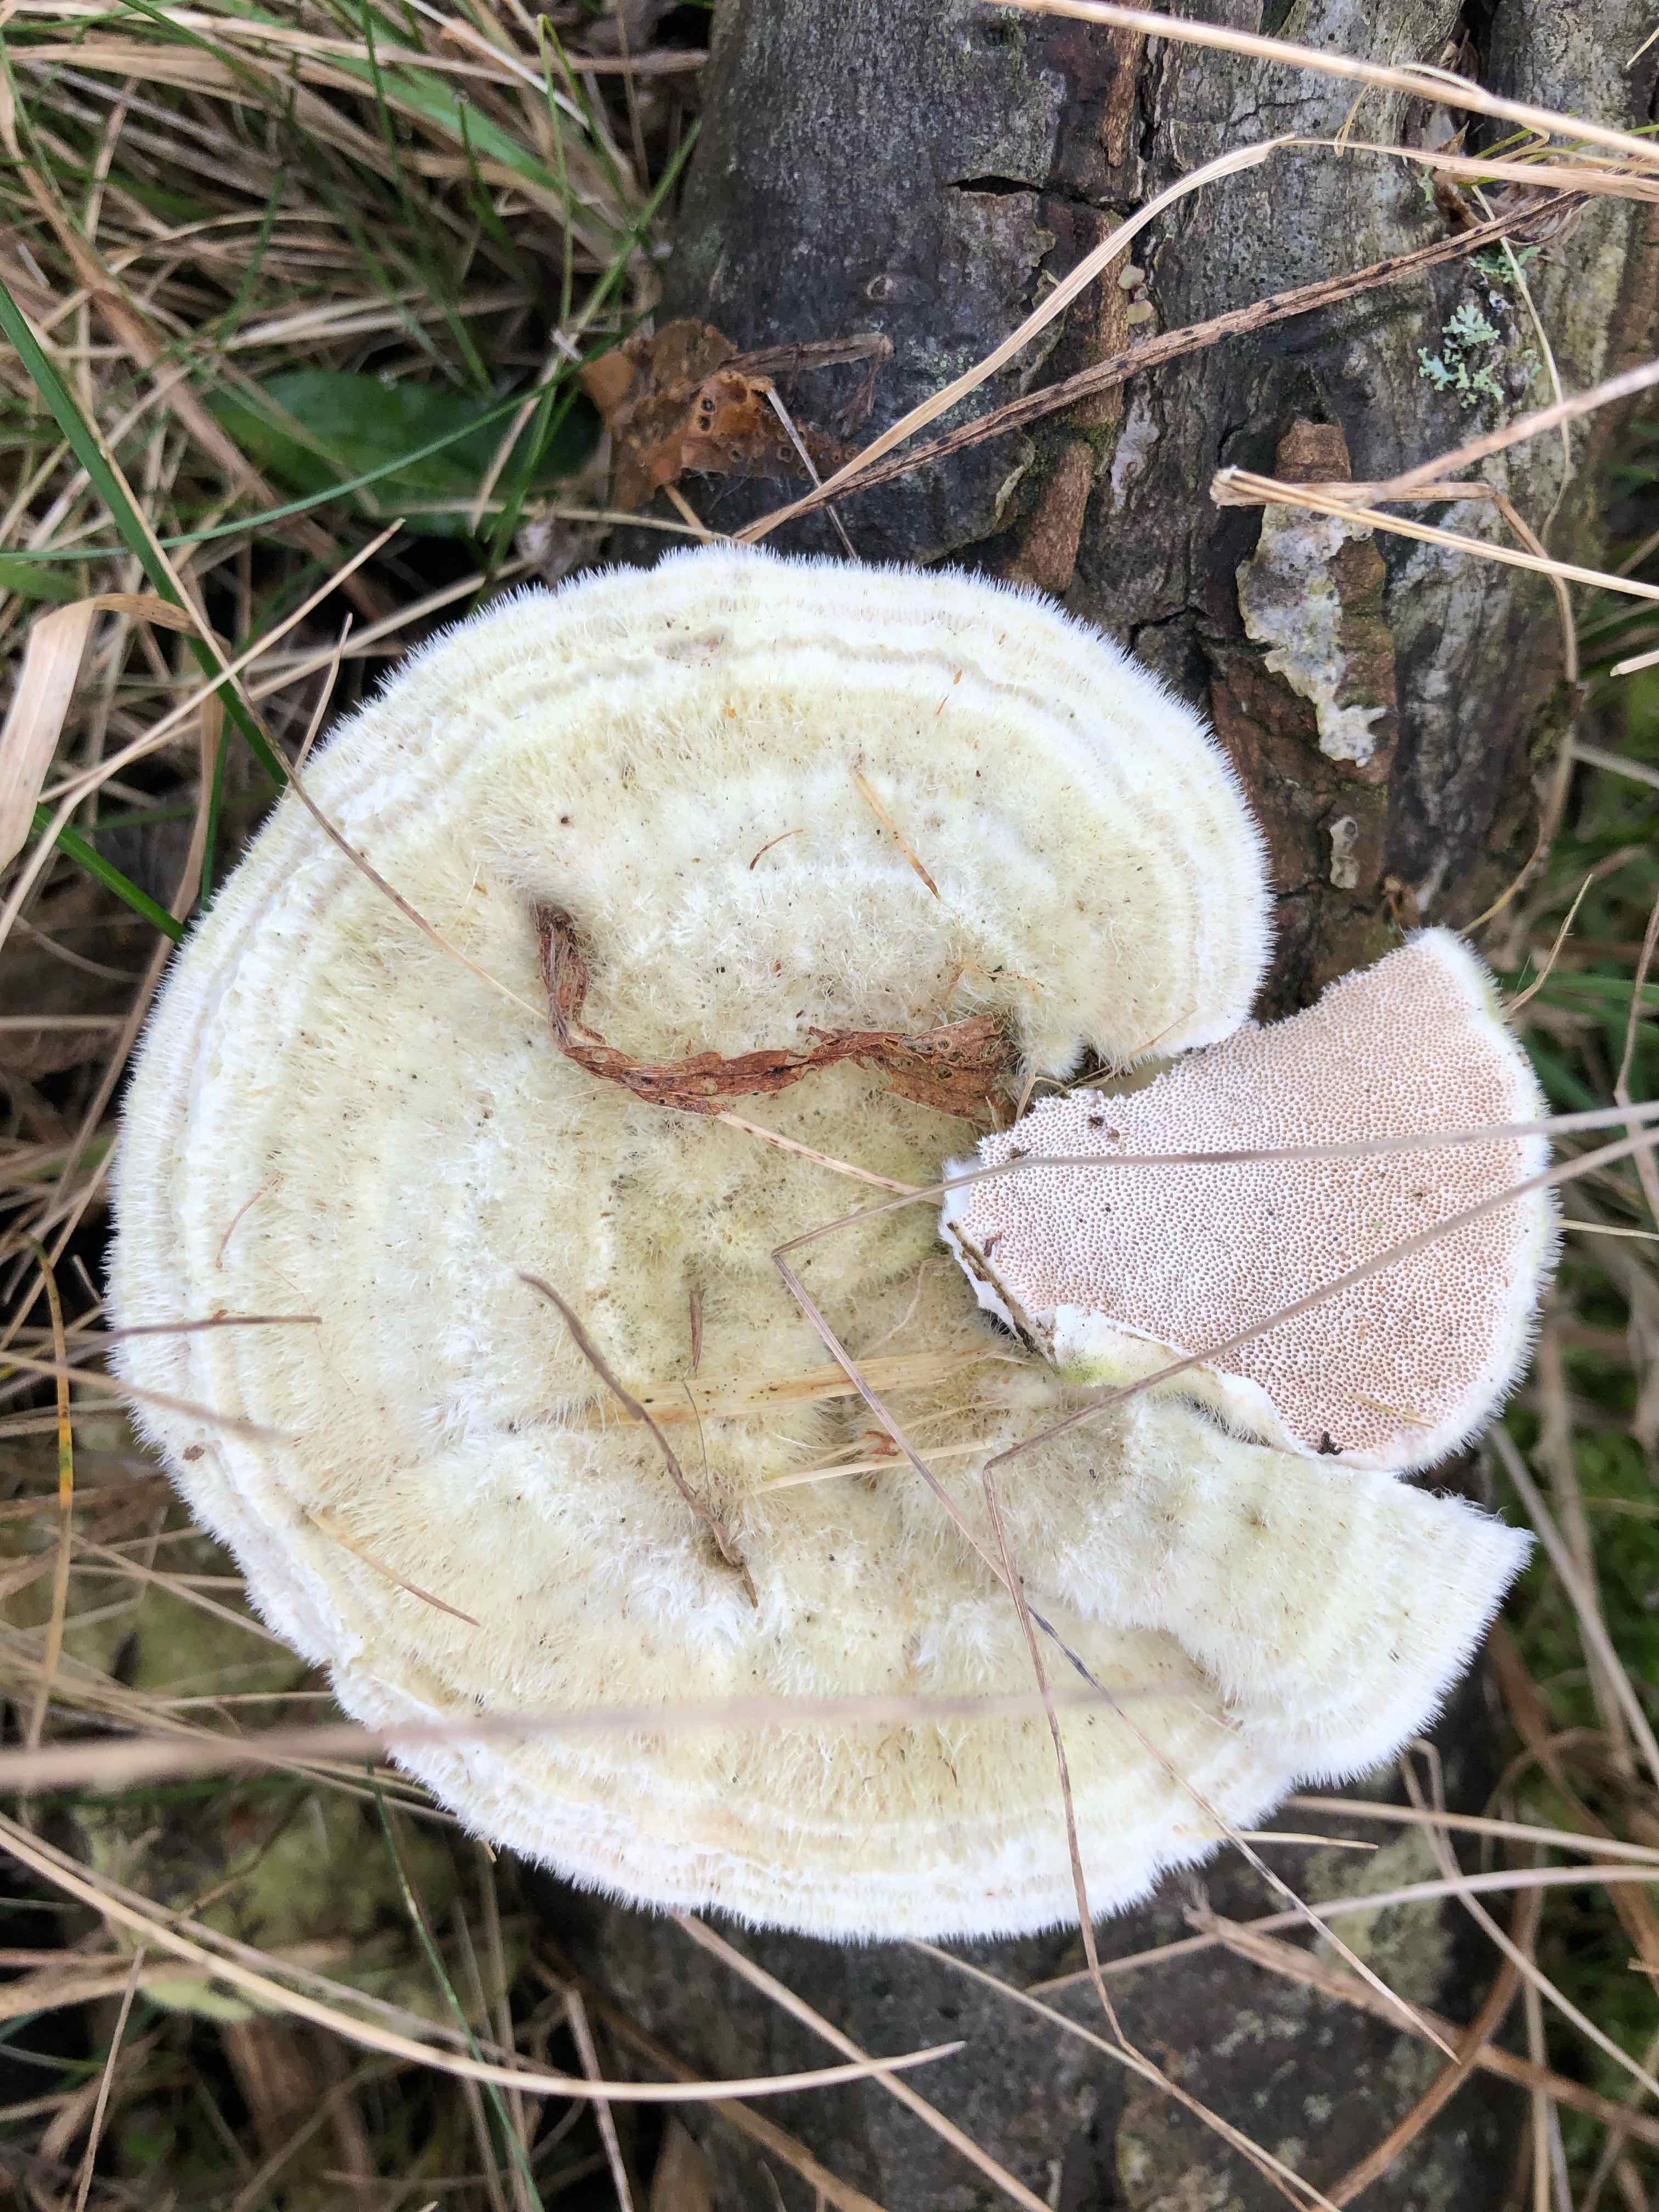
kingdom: Fungi
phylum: Basidiomycota
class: Agaricomycetes
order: Polyporales
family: Polyporaceae
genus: Trametes
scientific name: Trametes hirsuta
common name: håret læderporesvamp
